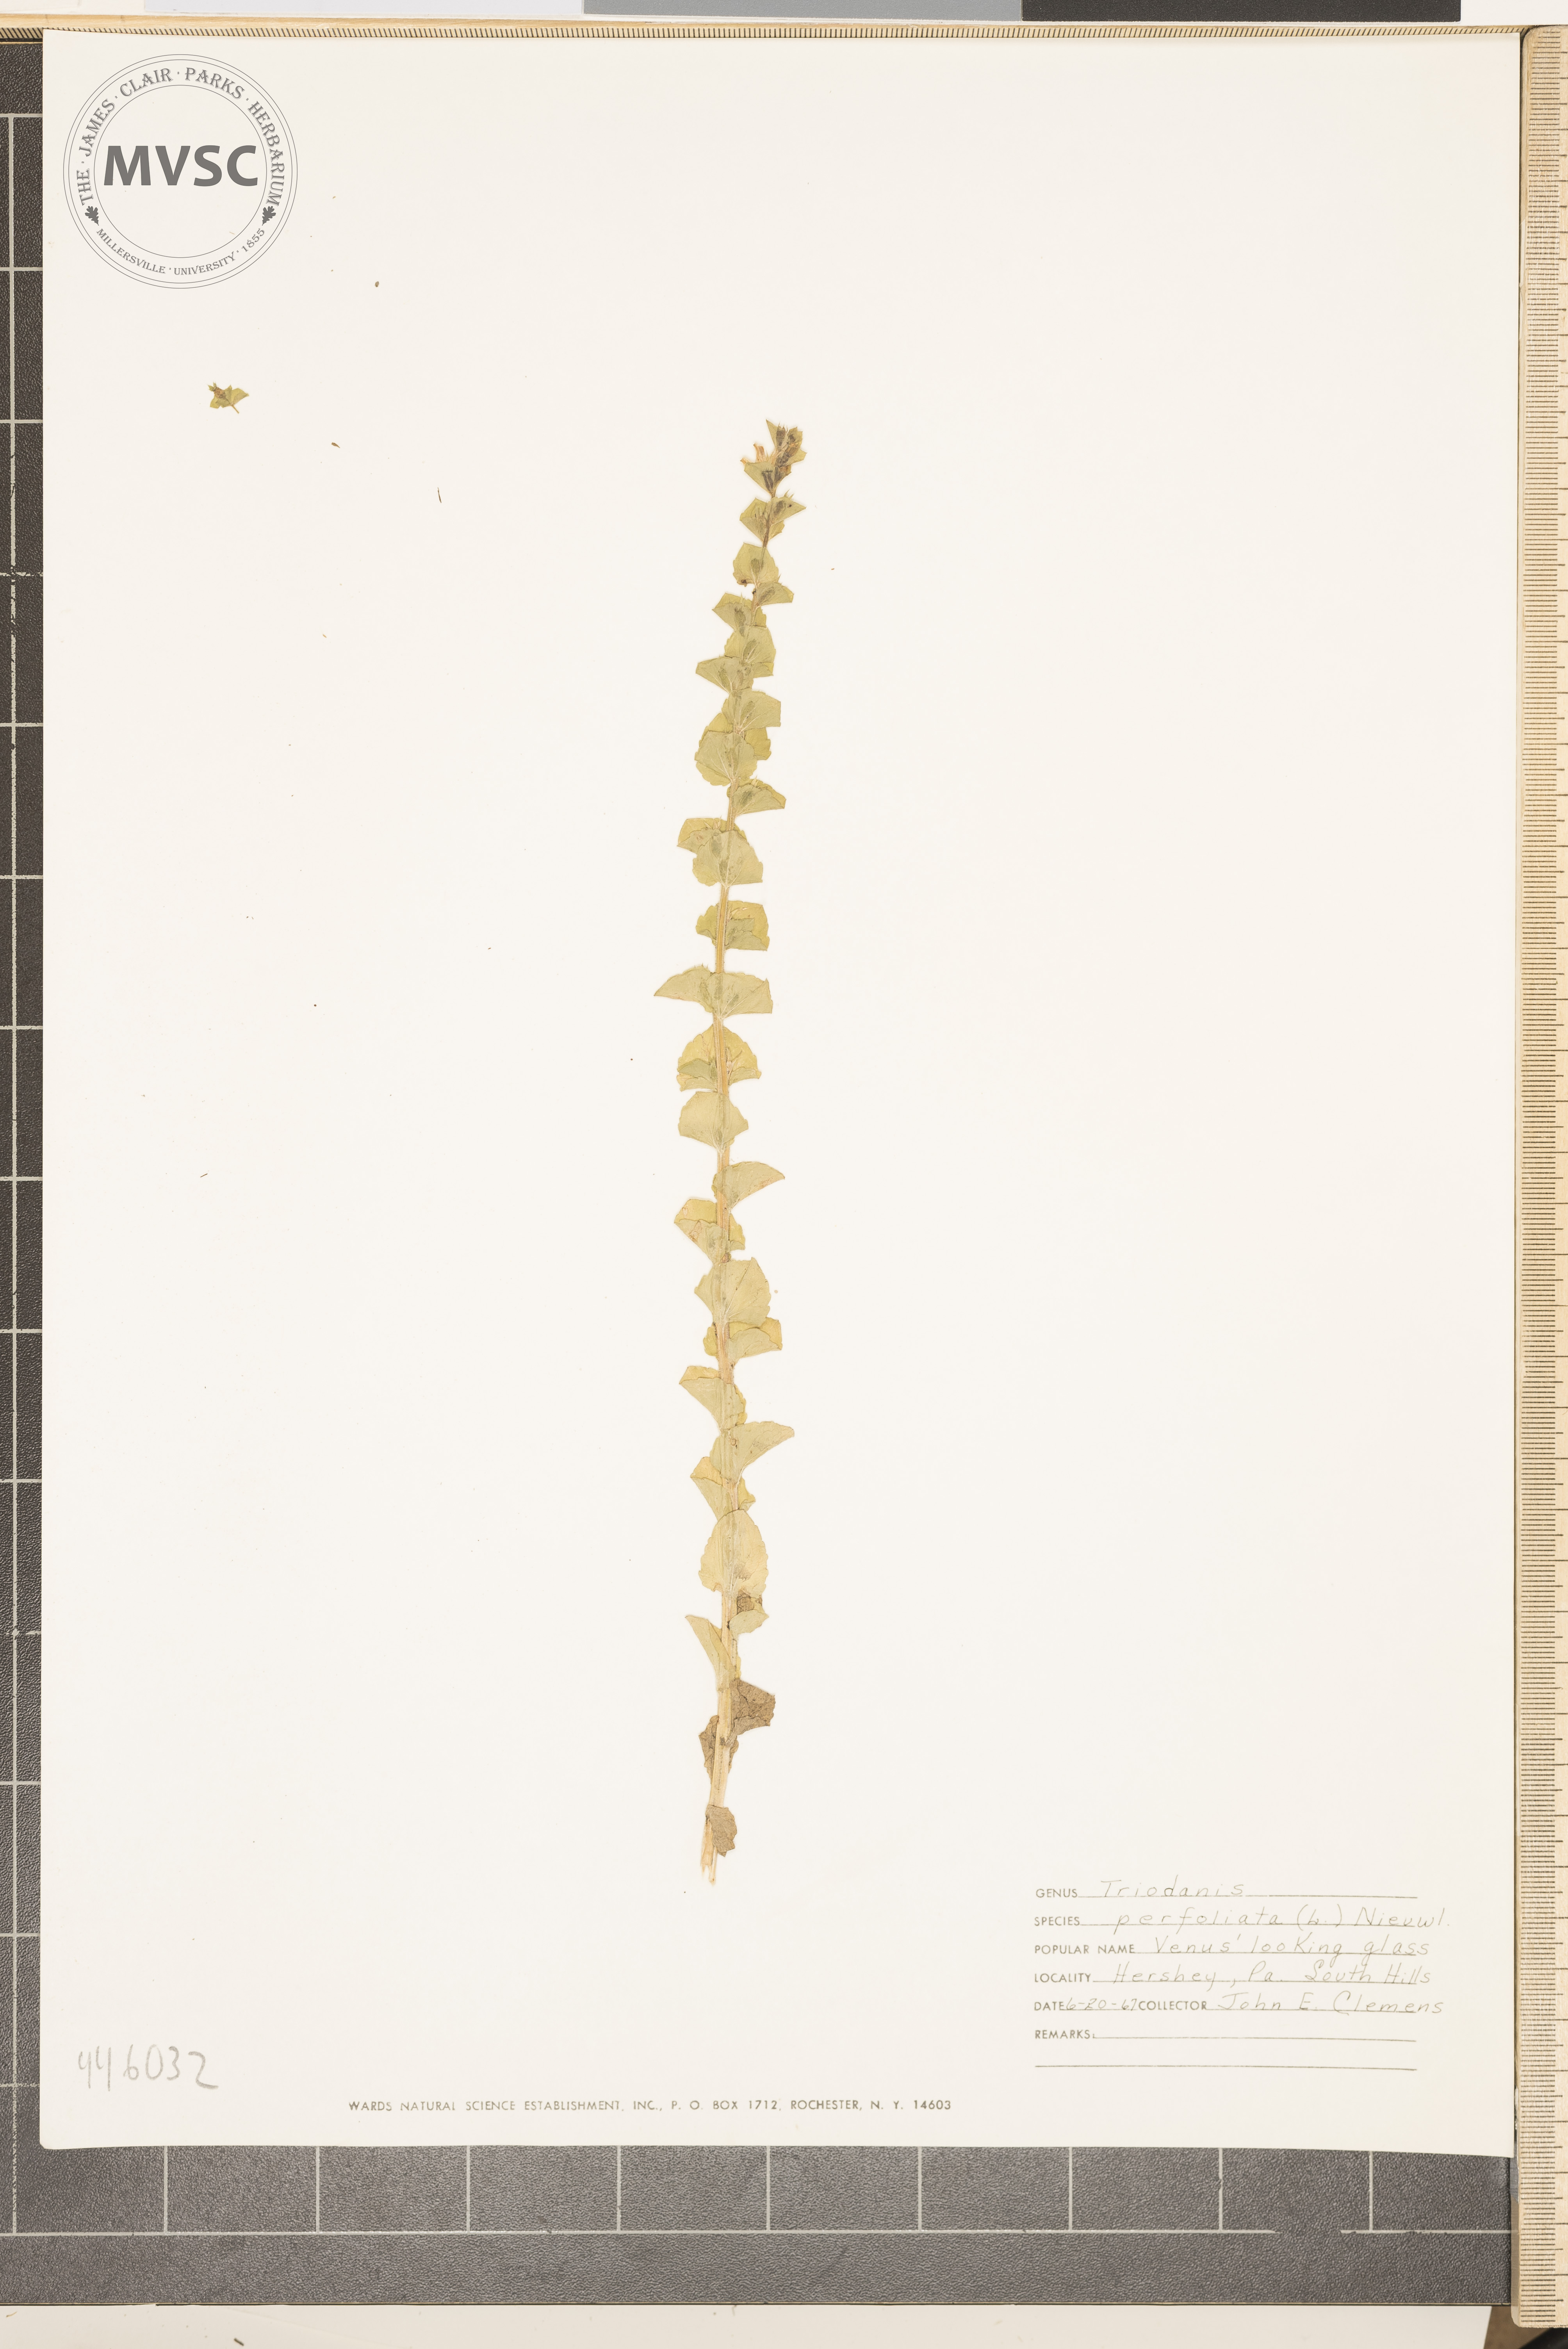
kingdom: Plantae
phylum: Tracheophyta
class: Magnoliopsida
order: Asterales
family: Campanulaceae
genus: Triodanis
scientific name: Triodanis perfoliata
